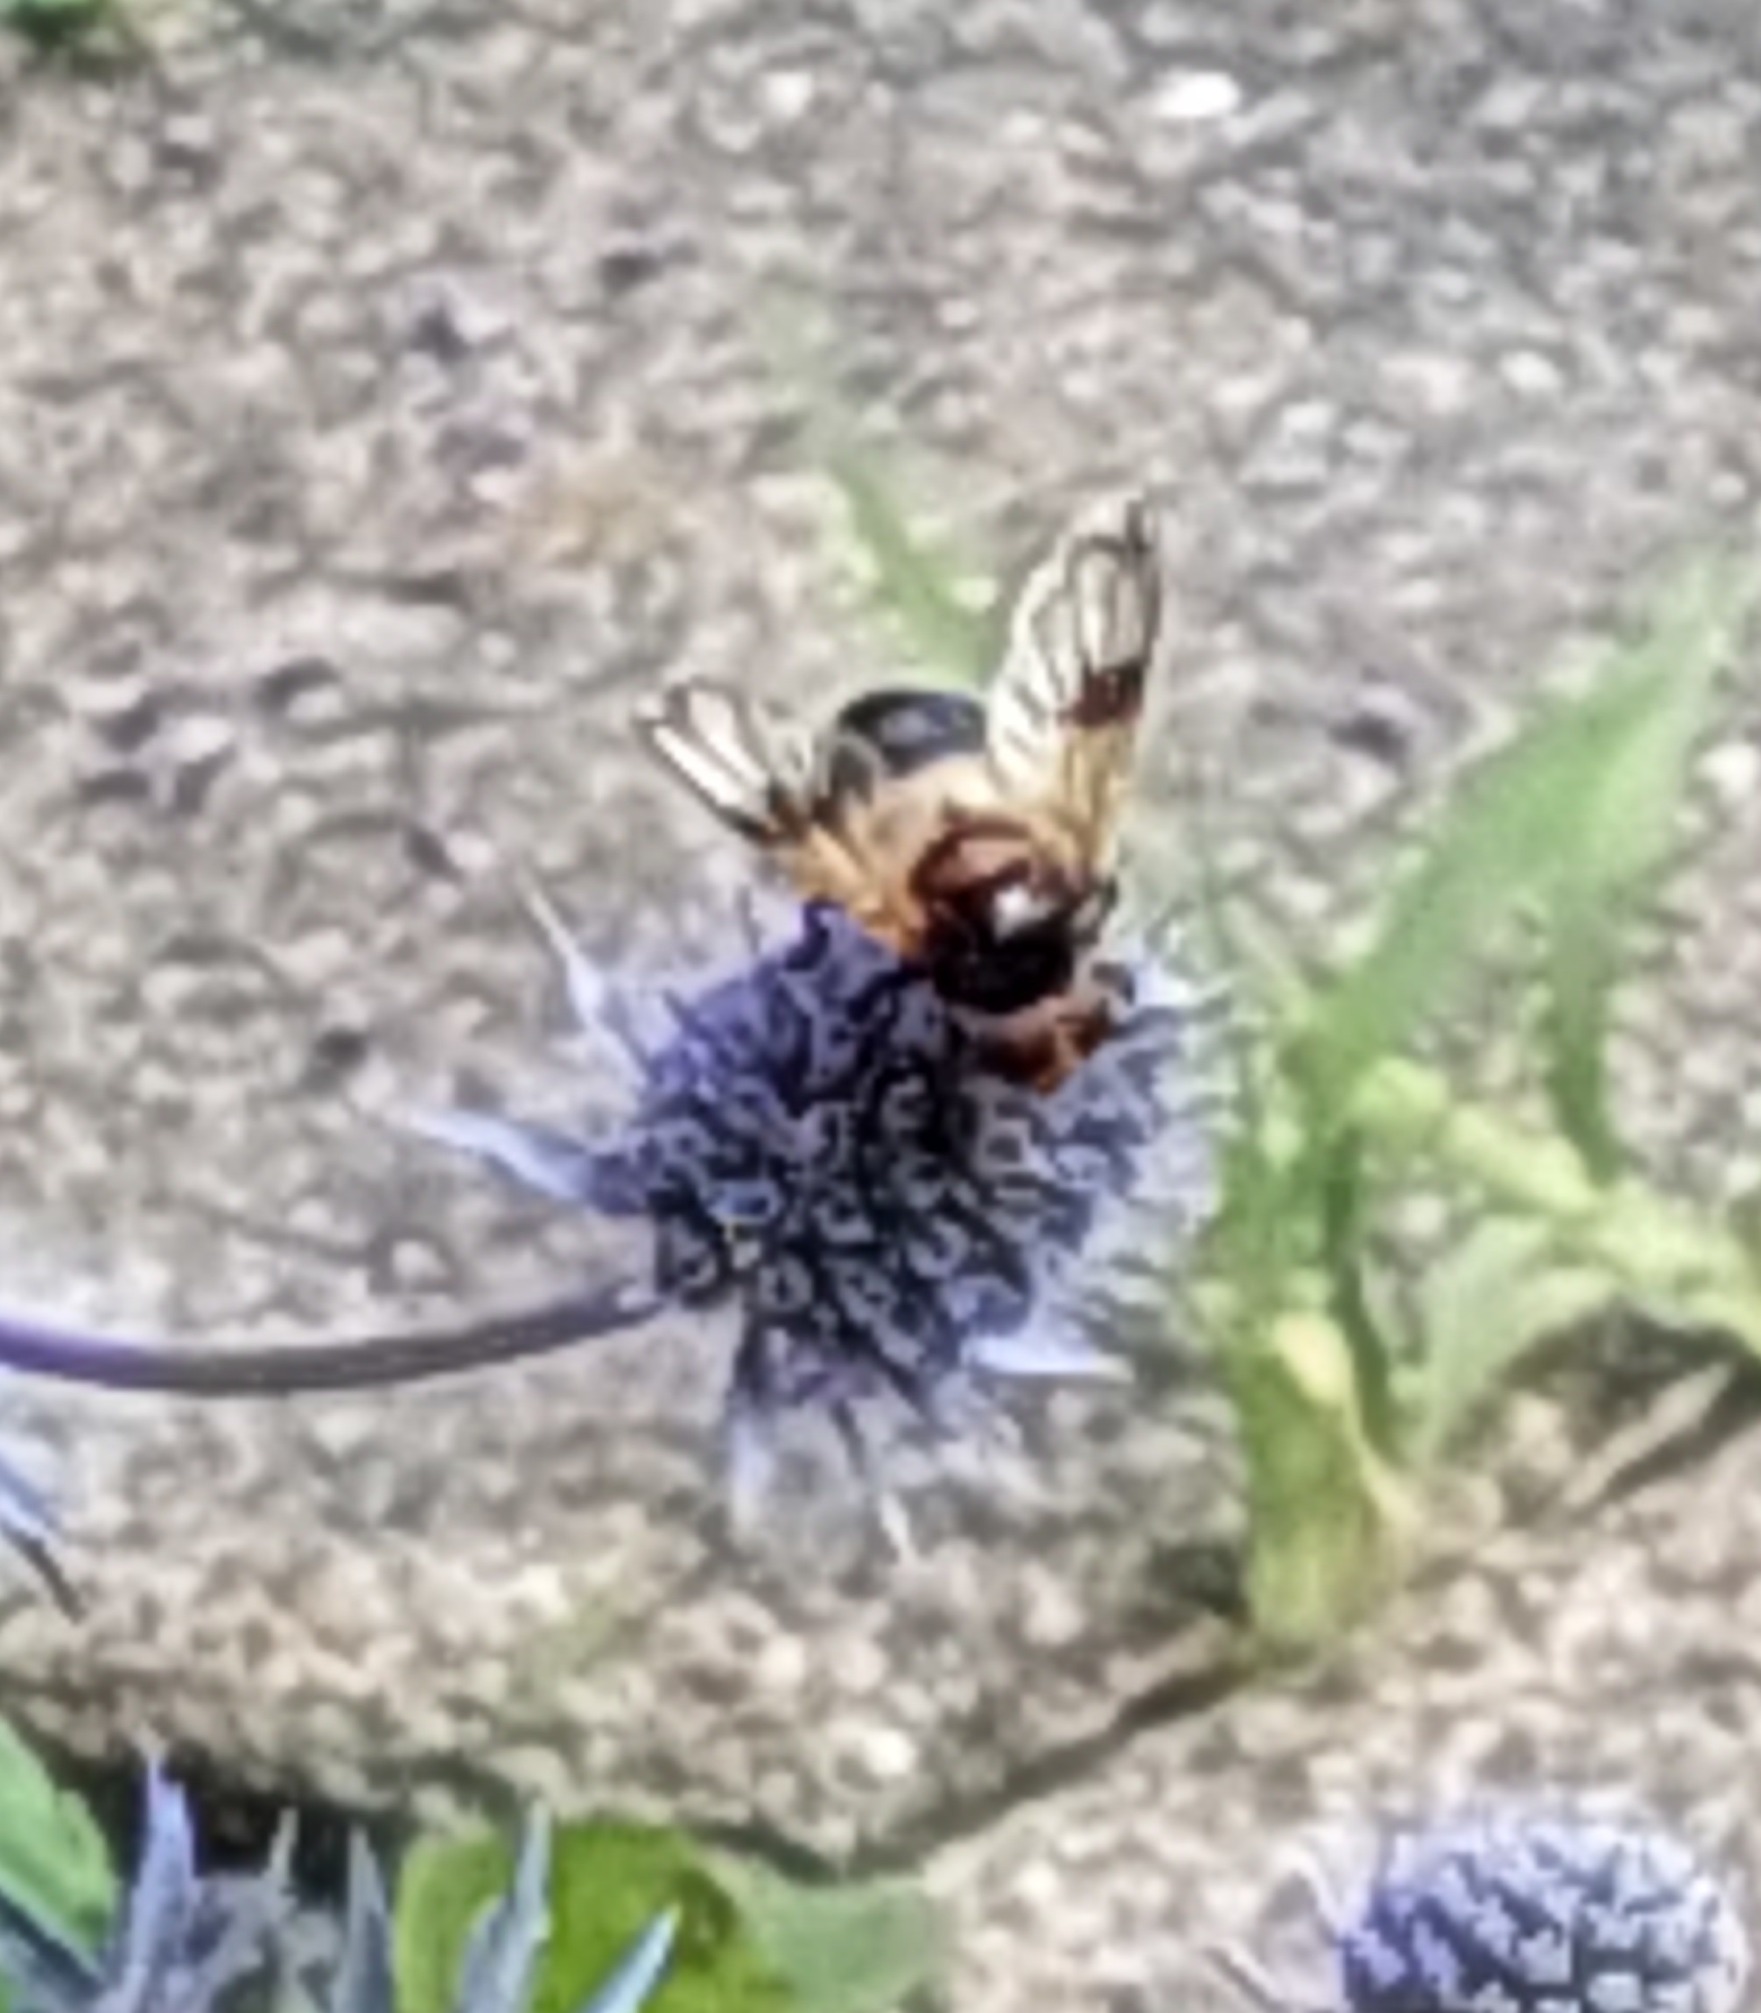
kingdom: Animalia
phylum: Arthropoda
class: Insecta
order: Diptera
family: Syrphidae
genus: Volucella
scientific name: Volucella pellucens
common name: Hvidbåndet humlesvirreflue
